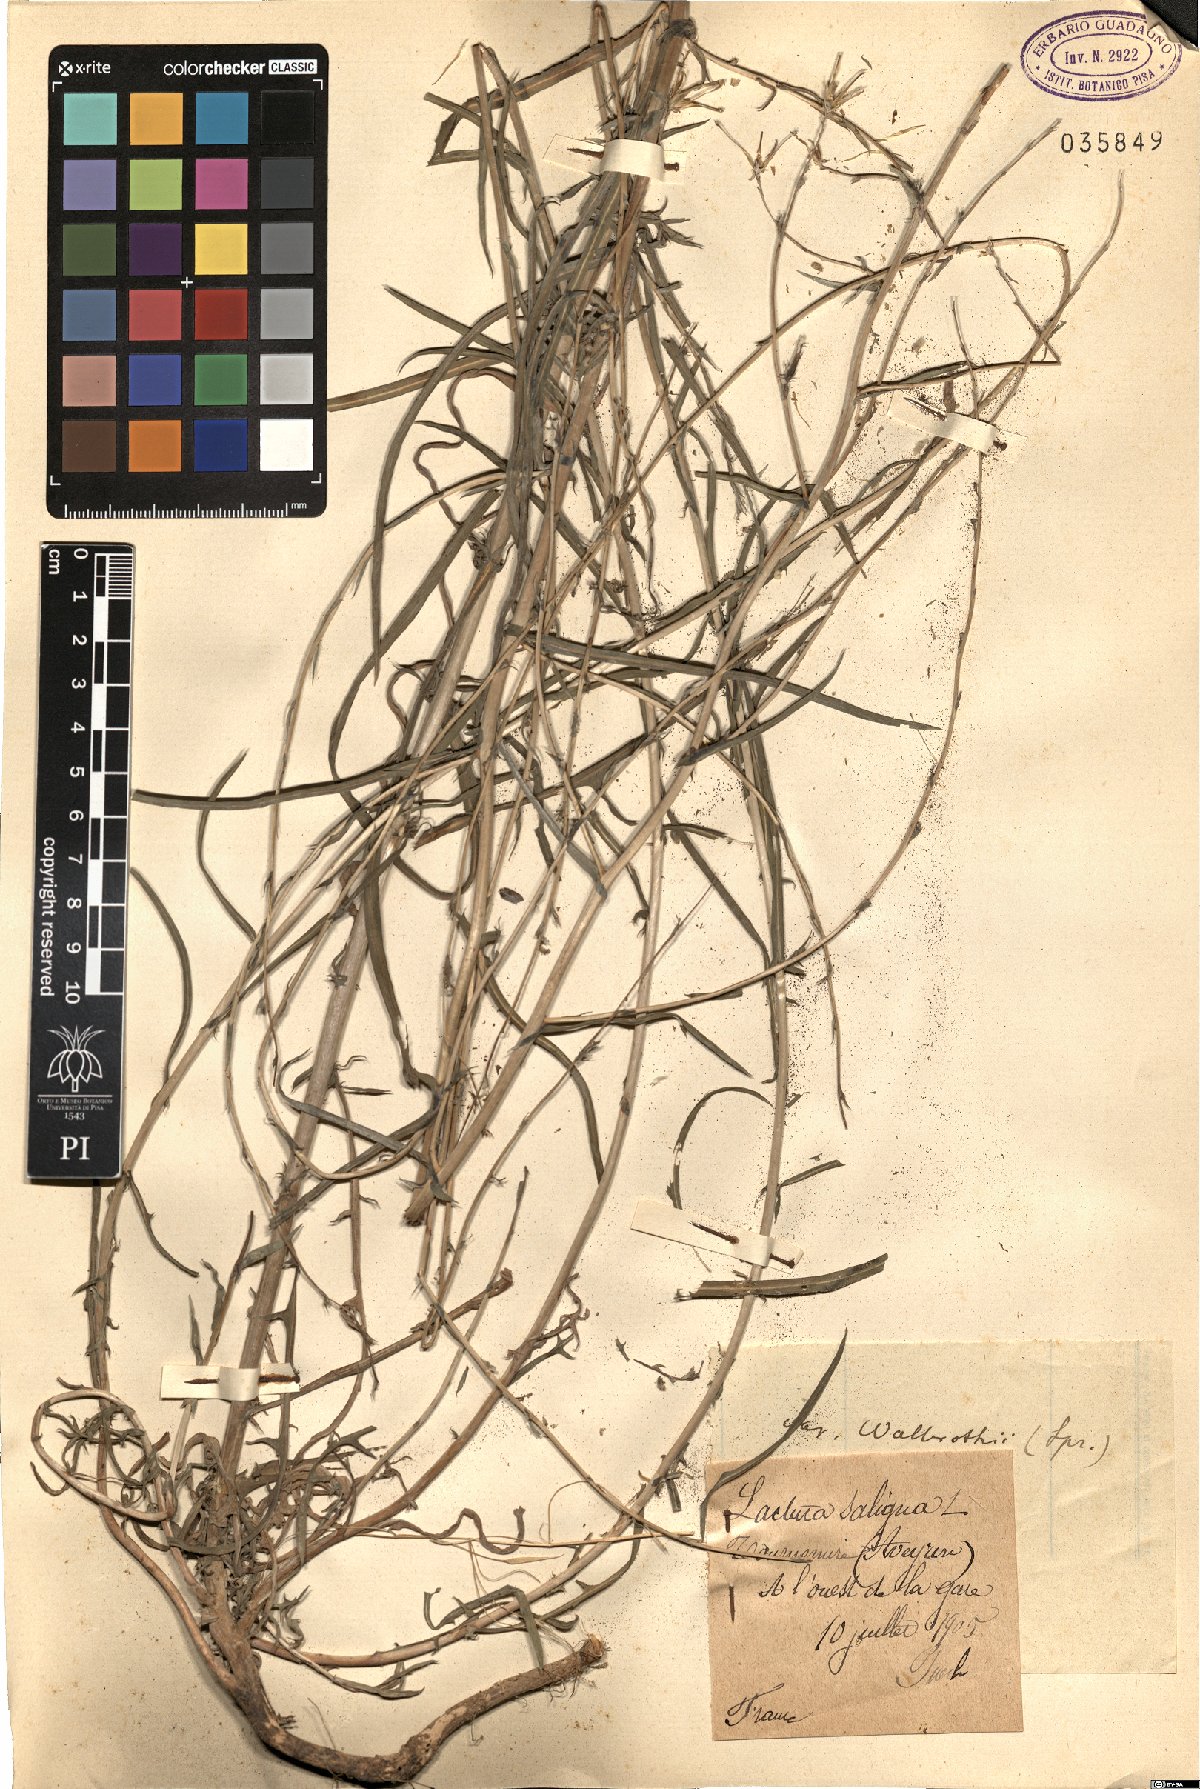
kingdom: Plantae
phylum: Tracheophyta
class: Magnoliopsida
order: Asterales
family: Asteraceae
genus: Lactuca
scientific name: Lactuca saligna
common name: Wild lettuce
